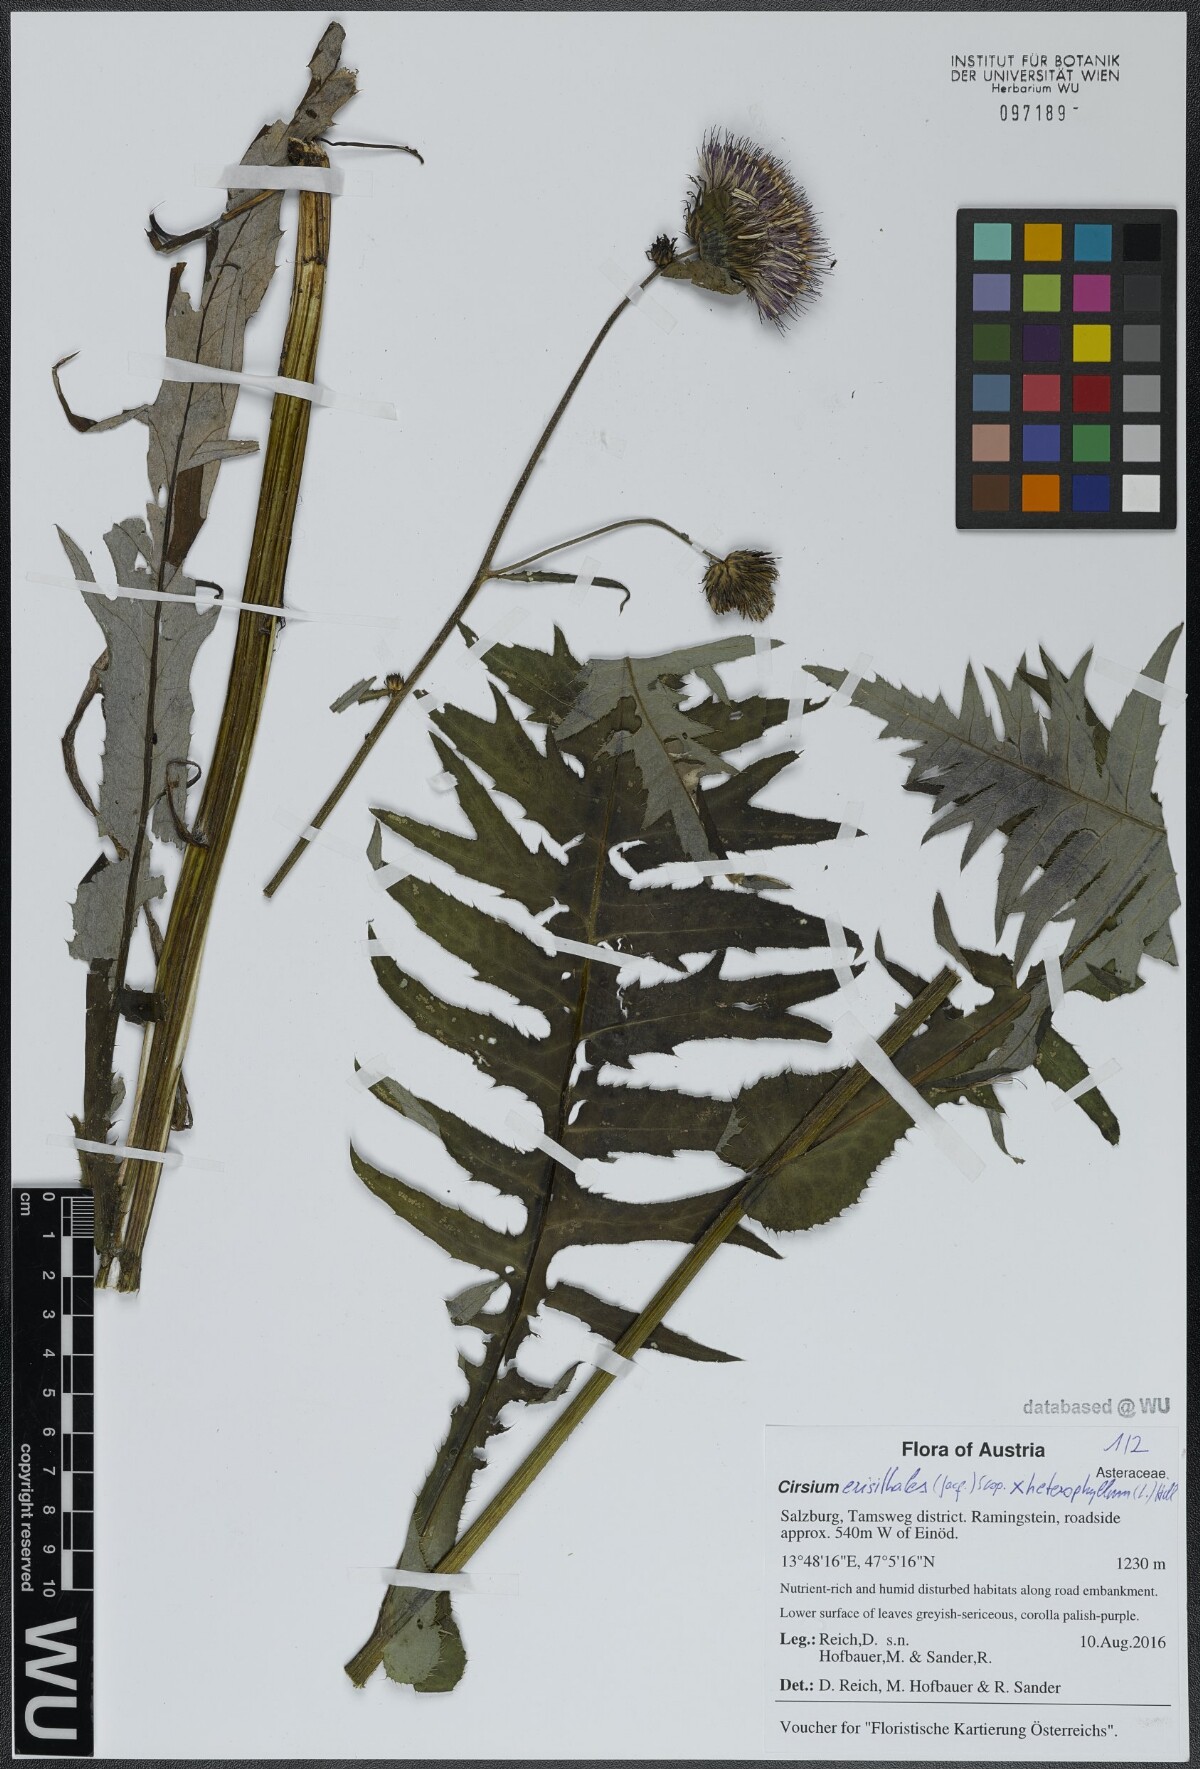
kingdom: Plantae
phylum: Tracheophyta
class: Magnoliopsida
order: Asterales
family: Asteraceae
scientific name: Asteraceae
